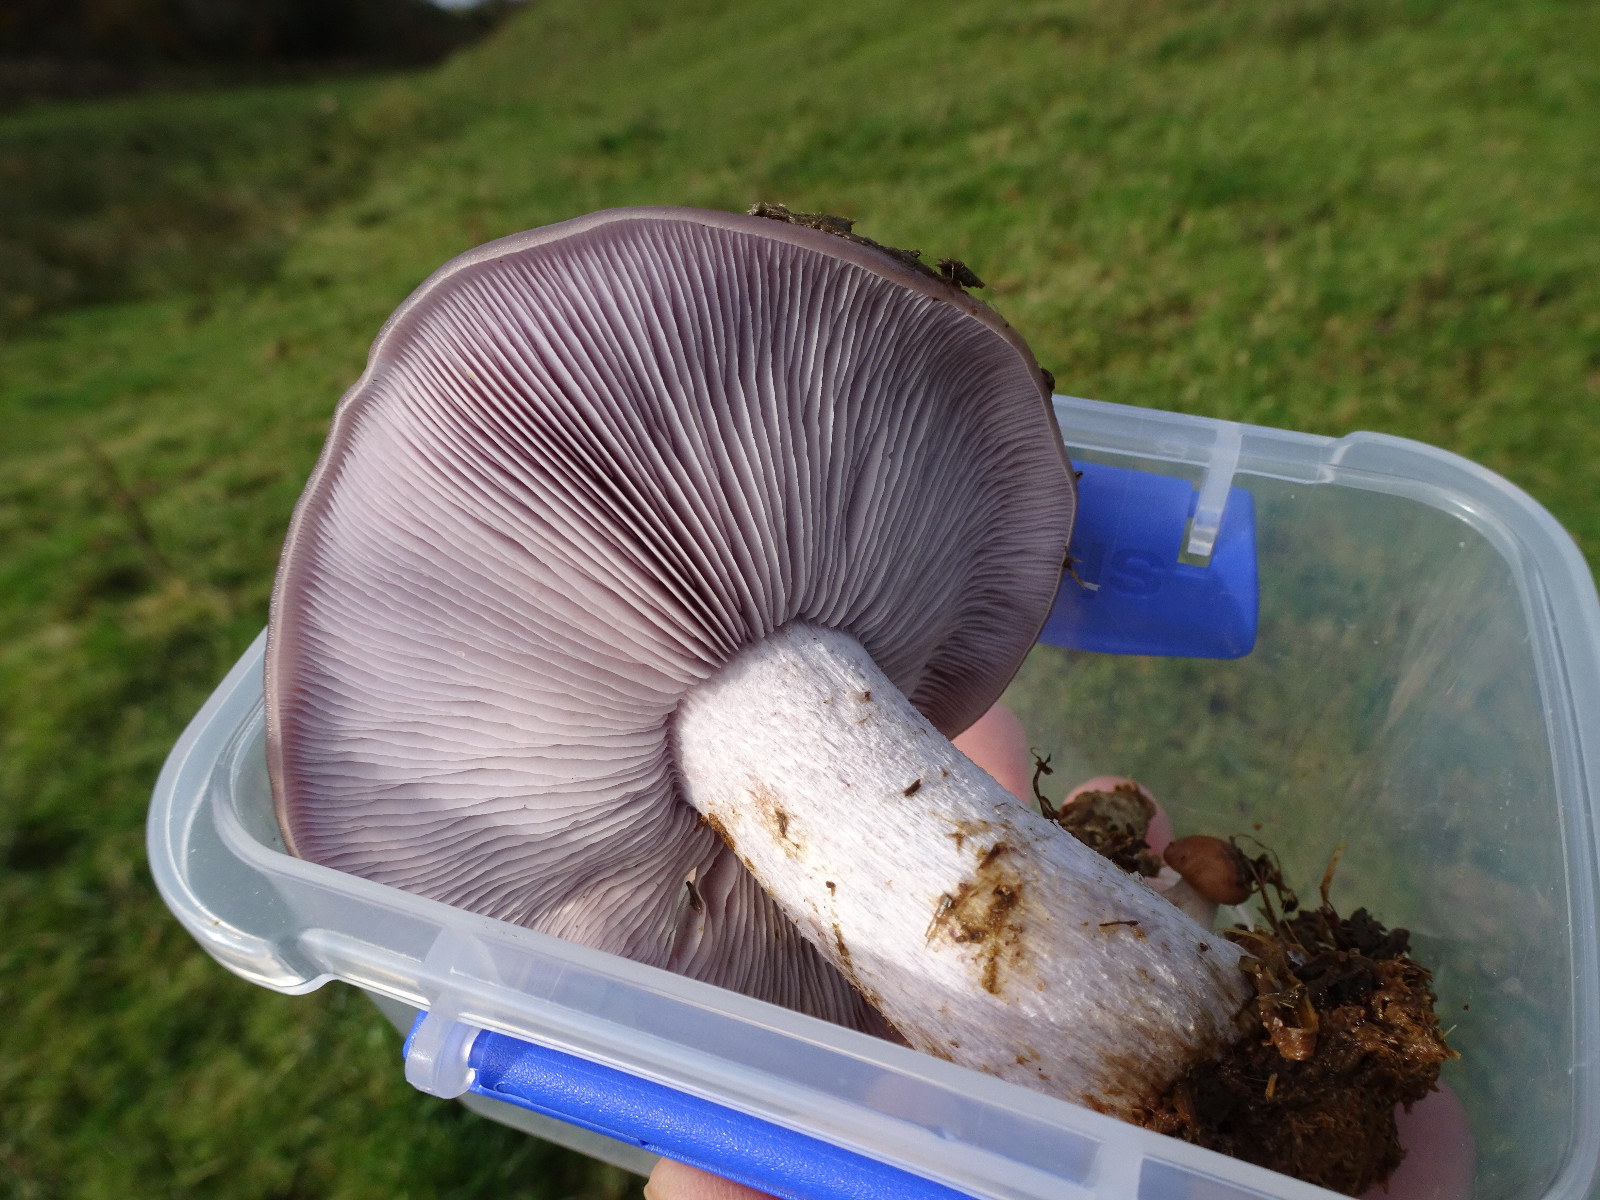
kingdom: Fungi
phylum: Basidiomycota
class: Agaricomycetes
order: Agaricales
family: Tricholomataceae
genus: Lepista
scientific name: Lepista nuda
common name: violet hekseringshat
